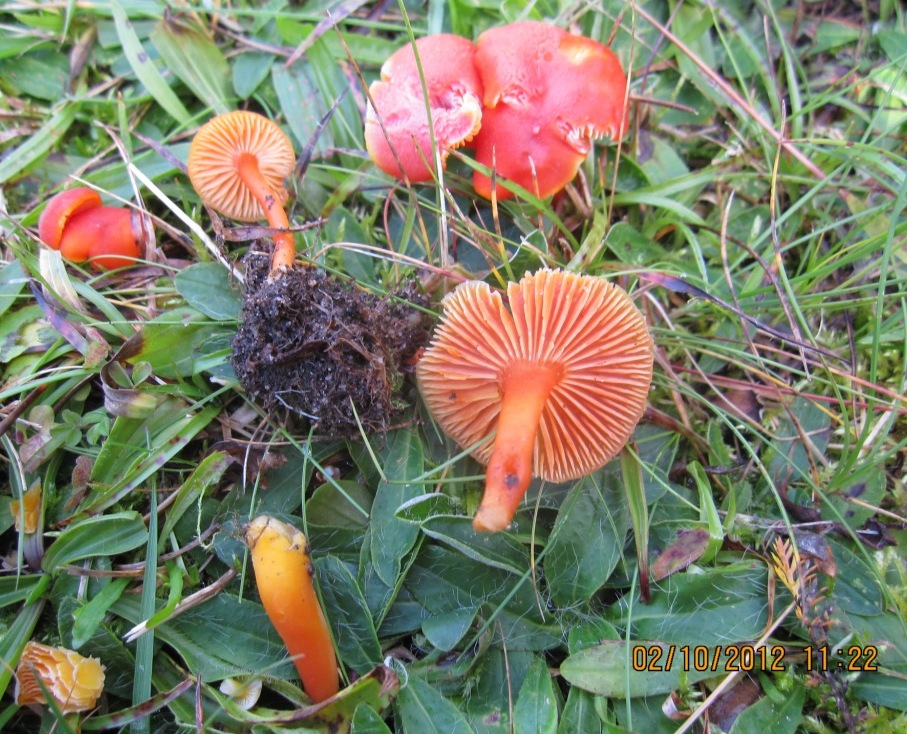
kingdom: Fungi
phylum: Basidiomycota
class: Agaricomycetes
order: Agaricales
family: Hygrophoraceae
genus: Hygrocybe
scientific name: Hygrocybe miniata
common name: mønje-vokshat
